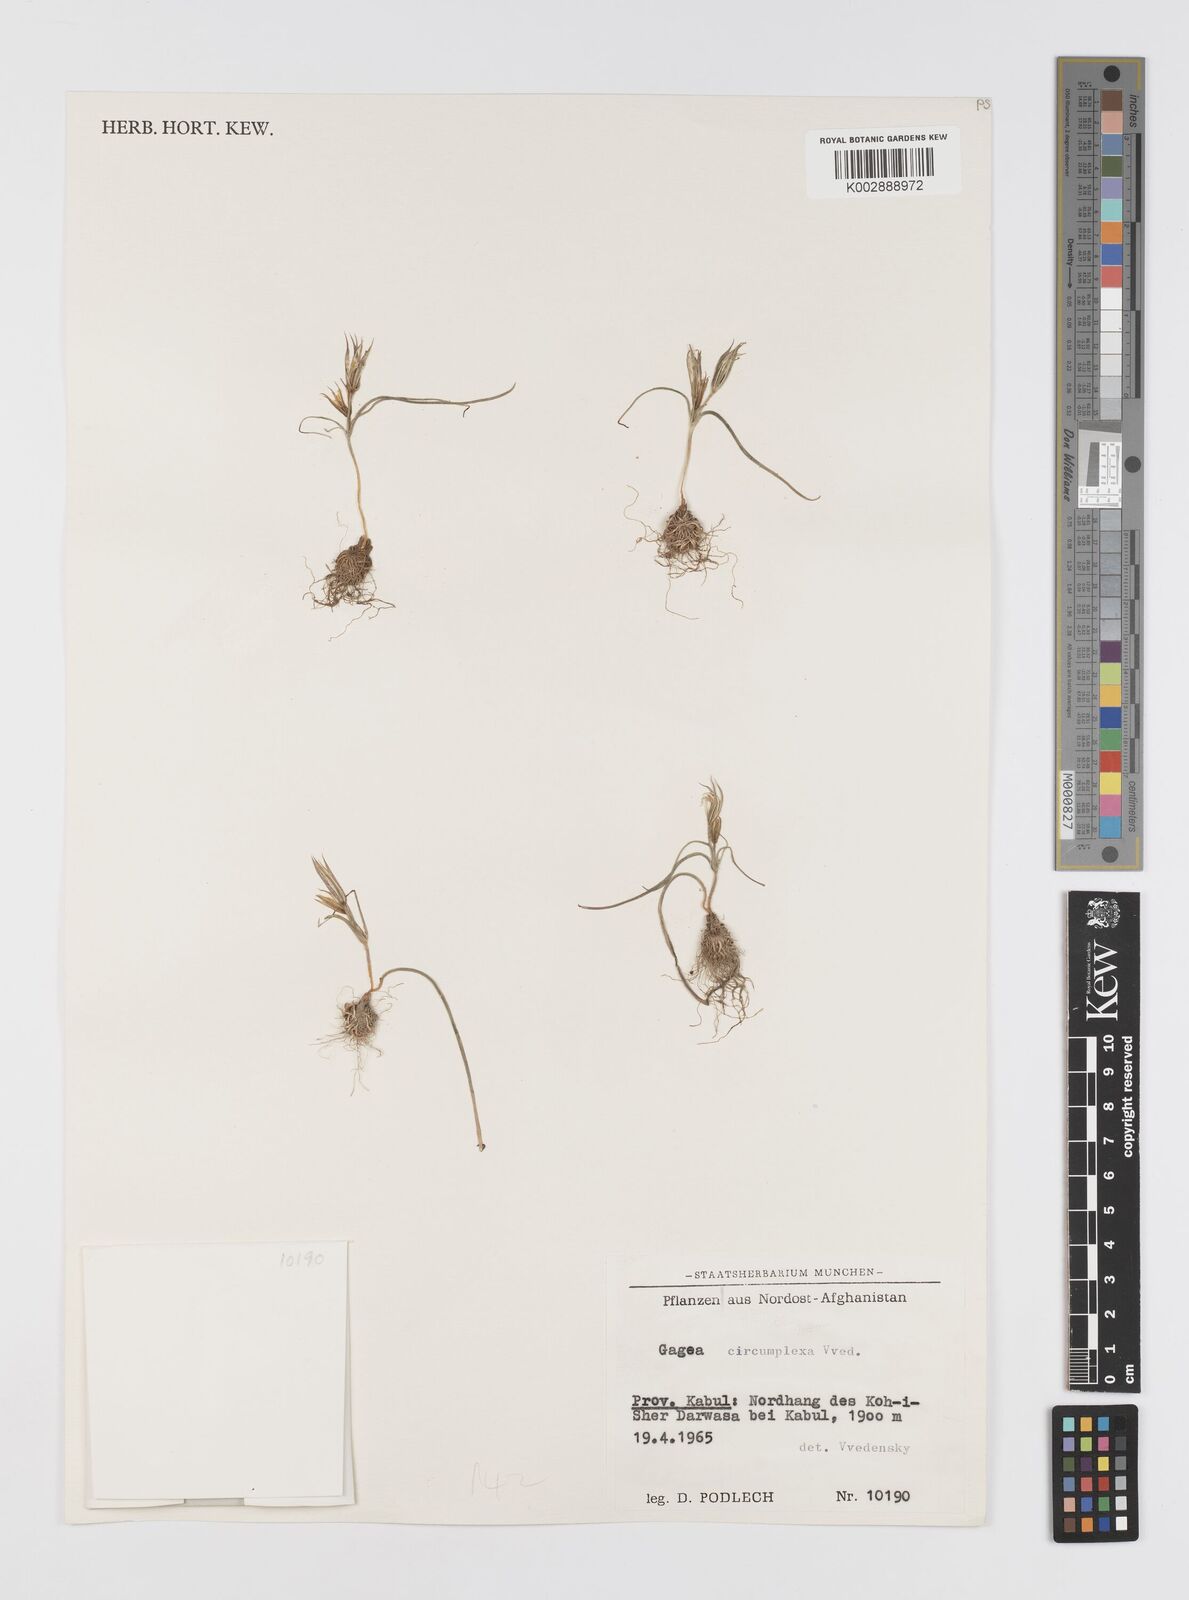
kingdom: Plantae
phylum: Tracheophyta
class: Liliopsida
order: Liliales
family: Liliaceae
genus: Gagea
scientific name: Gagea
